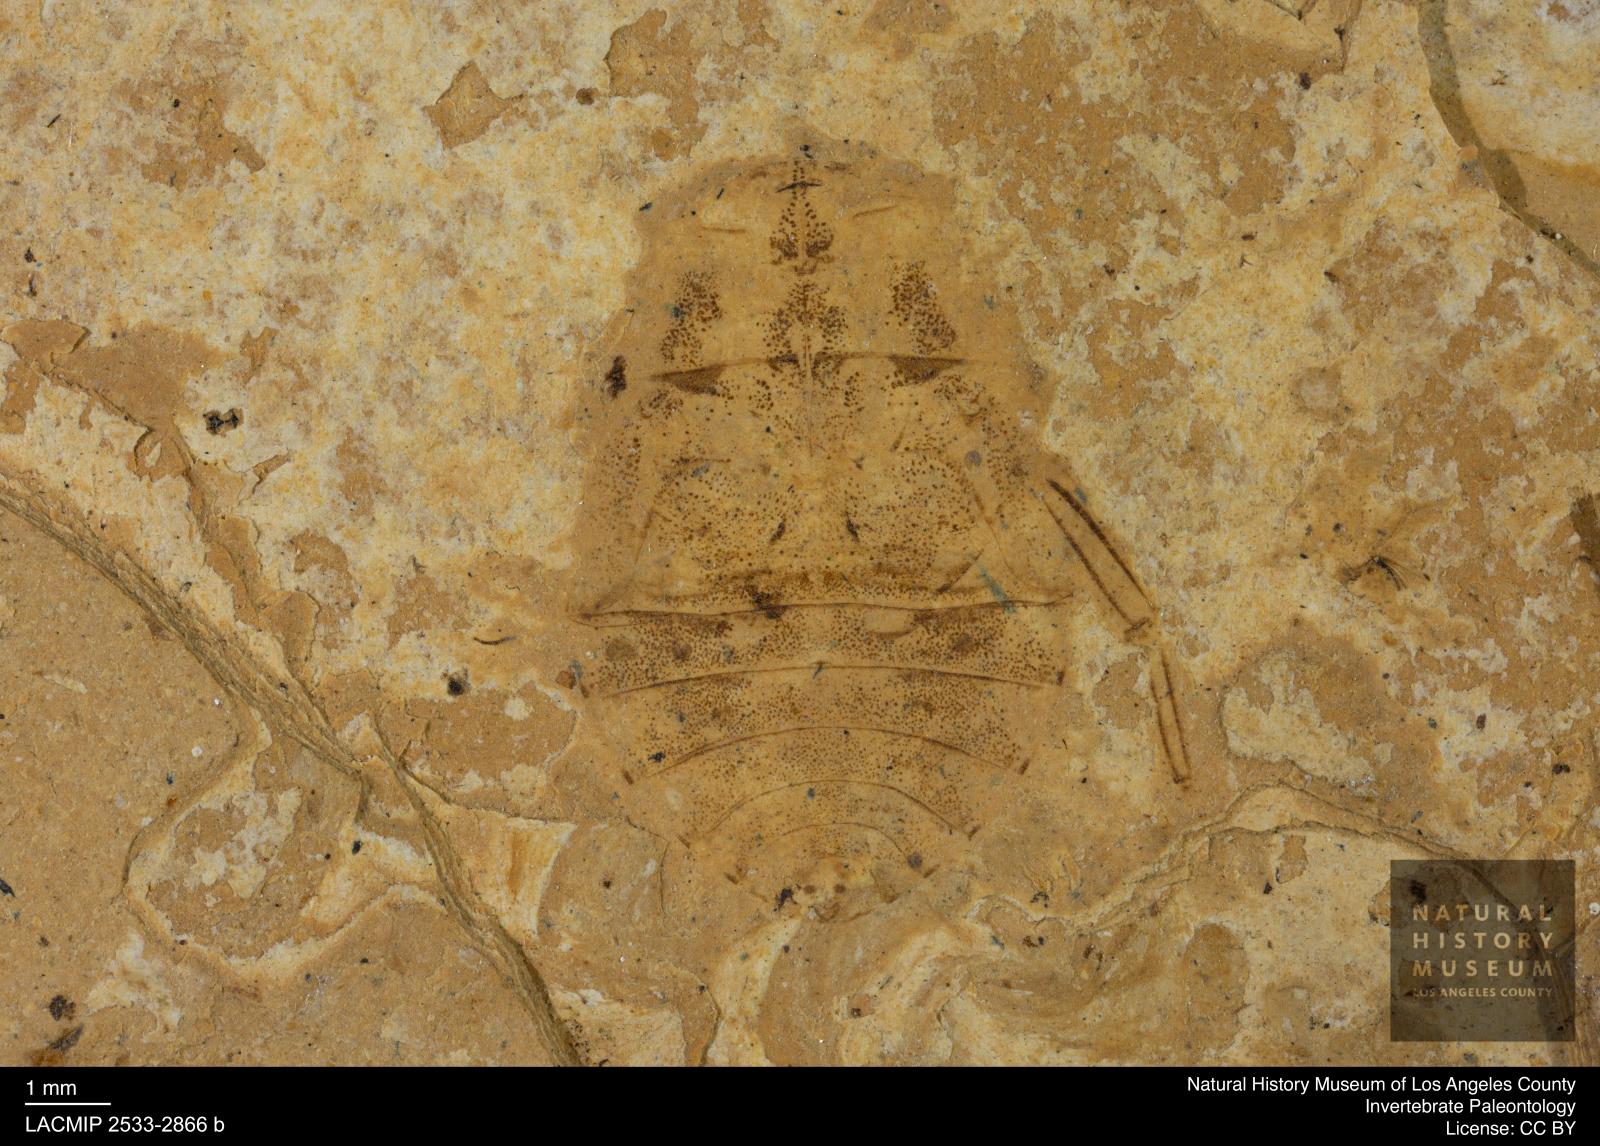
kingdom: Animalia
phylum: Arthropoda
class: Insecta
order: Hemiptera
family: Naucoridae
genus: Naucoris
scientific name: Naucoris rottensis
